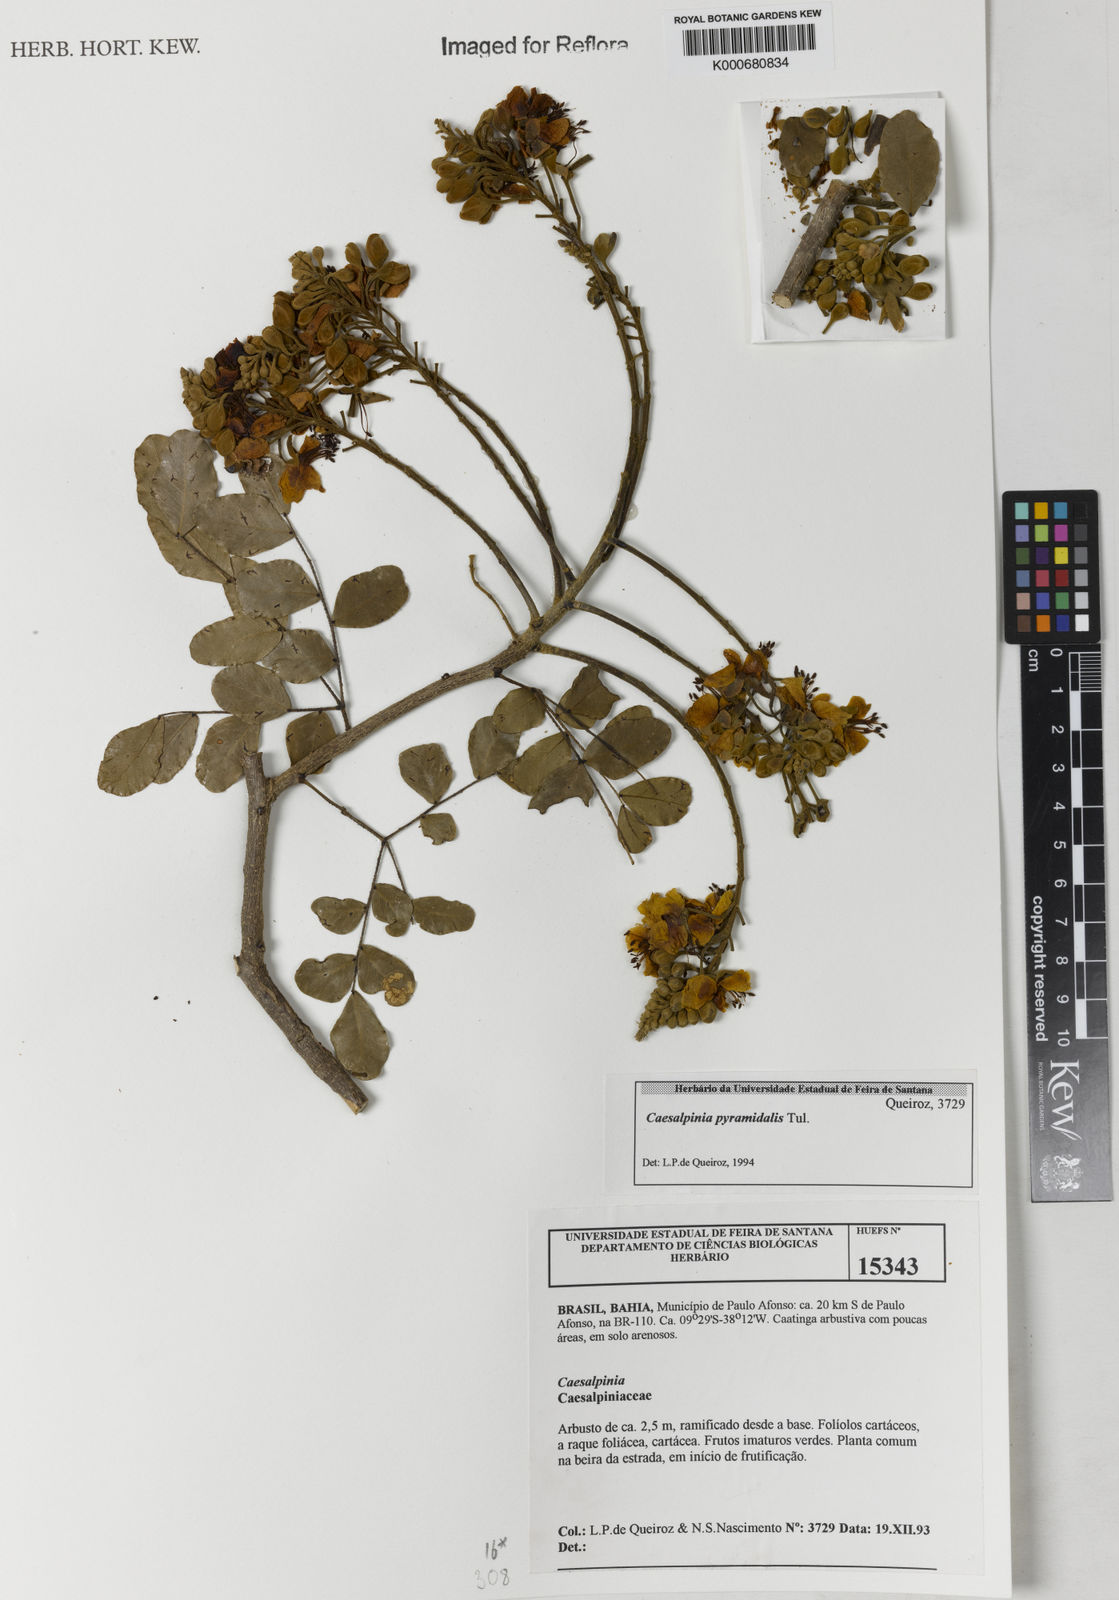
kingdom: Plantae
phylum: Tracheophyta
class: Magnoliopsida
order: Fabales
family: Fabaceae
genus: Cenostigma
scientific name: Cenostigma pyramidale
